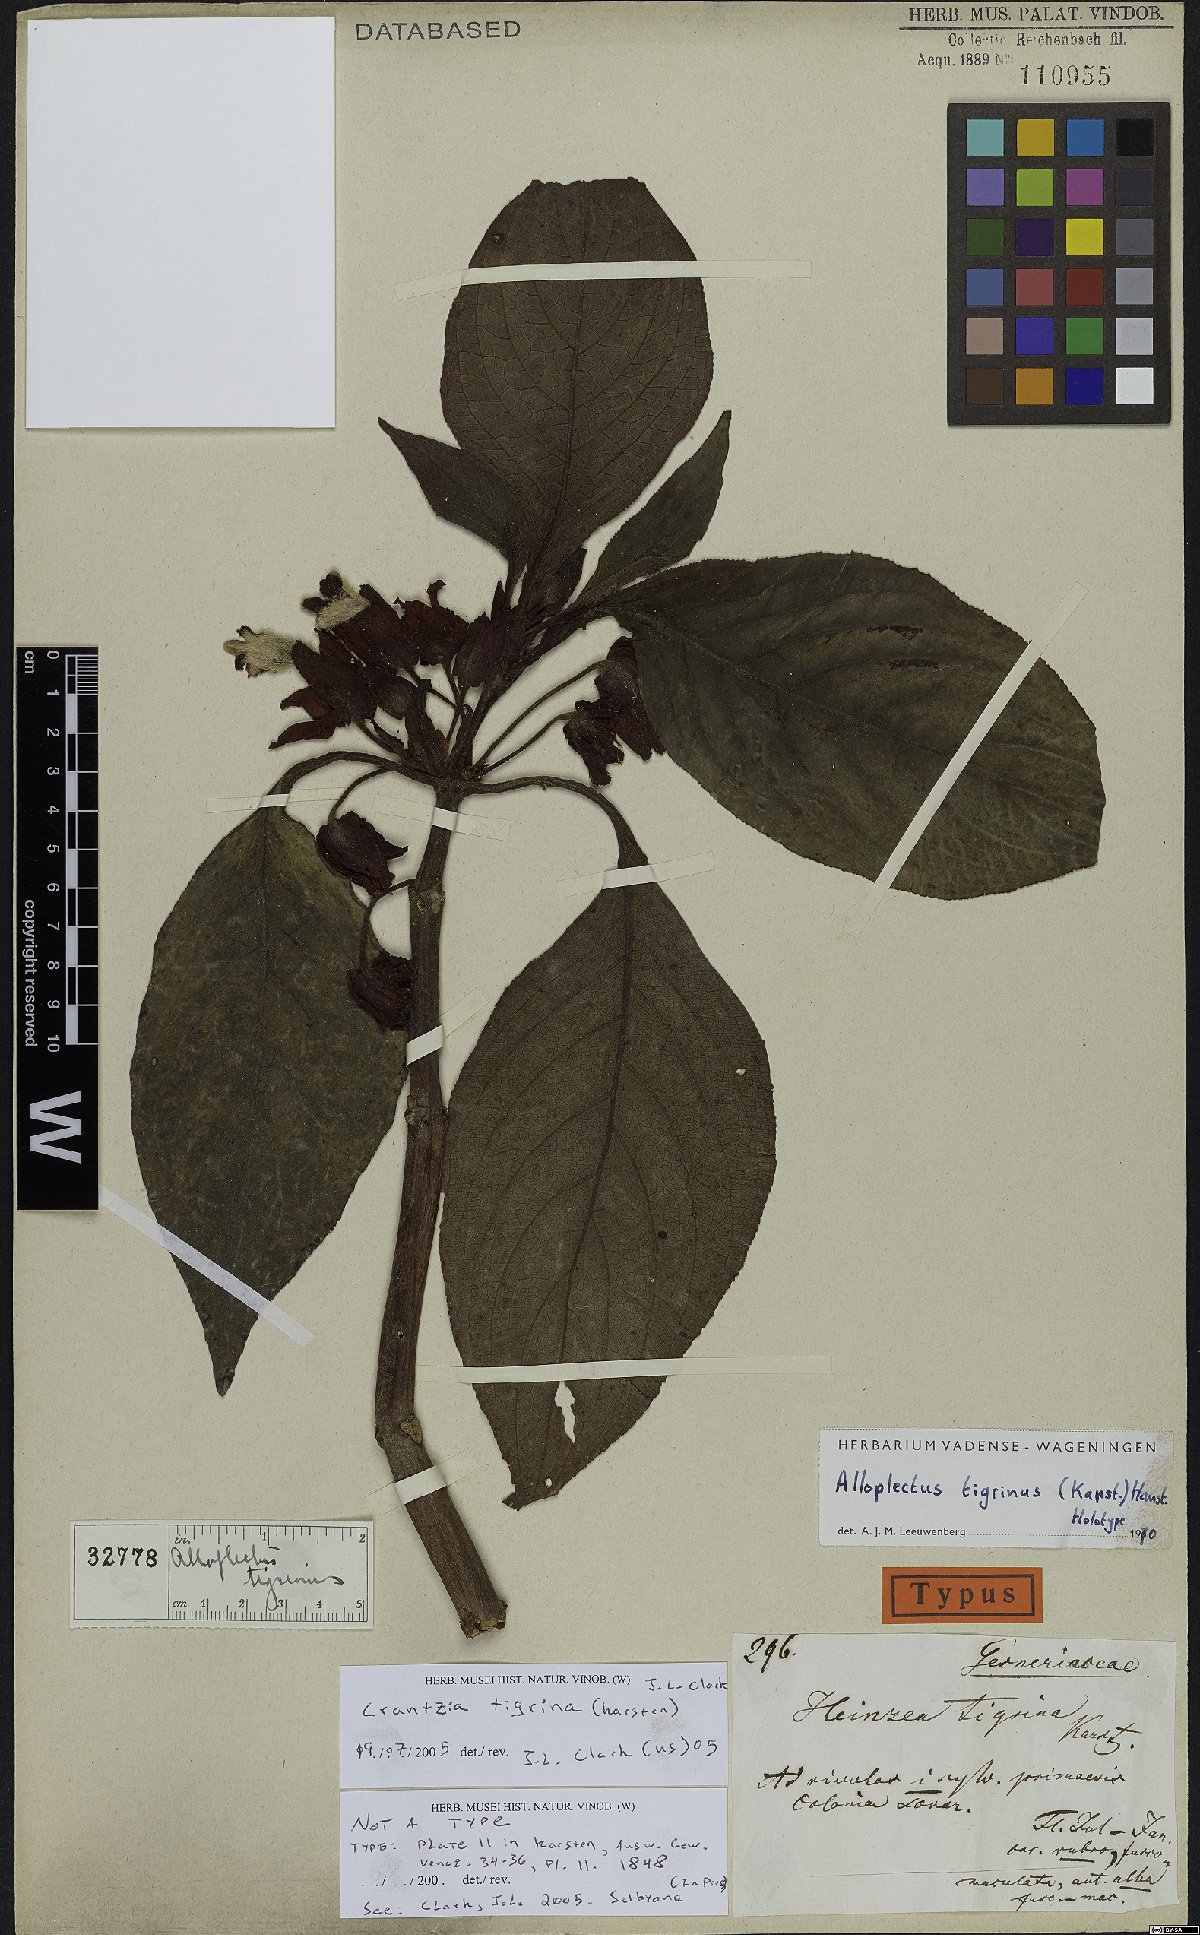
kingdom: Plantae
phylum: Tracheophyta
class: Magnoliopsida
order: Lamiales
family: Gesneriaceae
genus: Crantzia
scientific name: Crantzia tigrina
